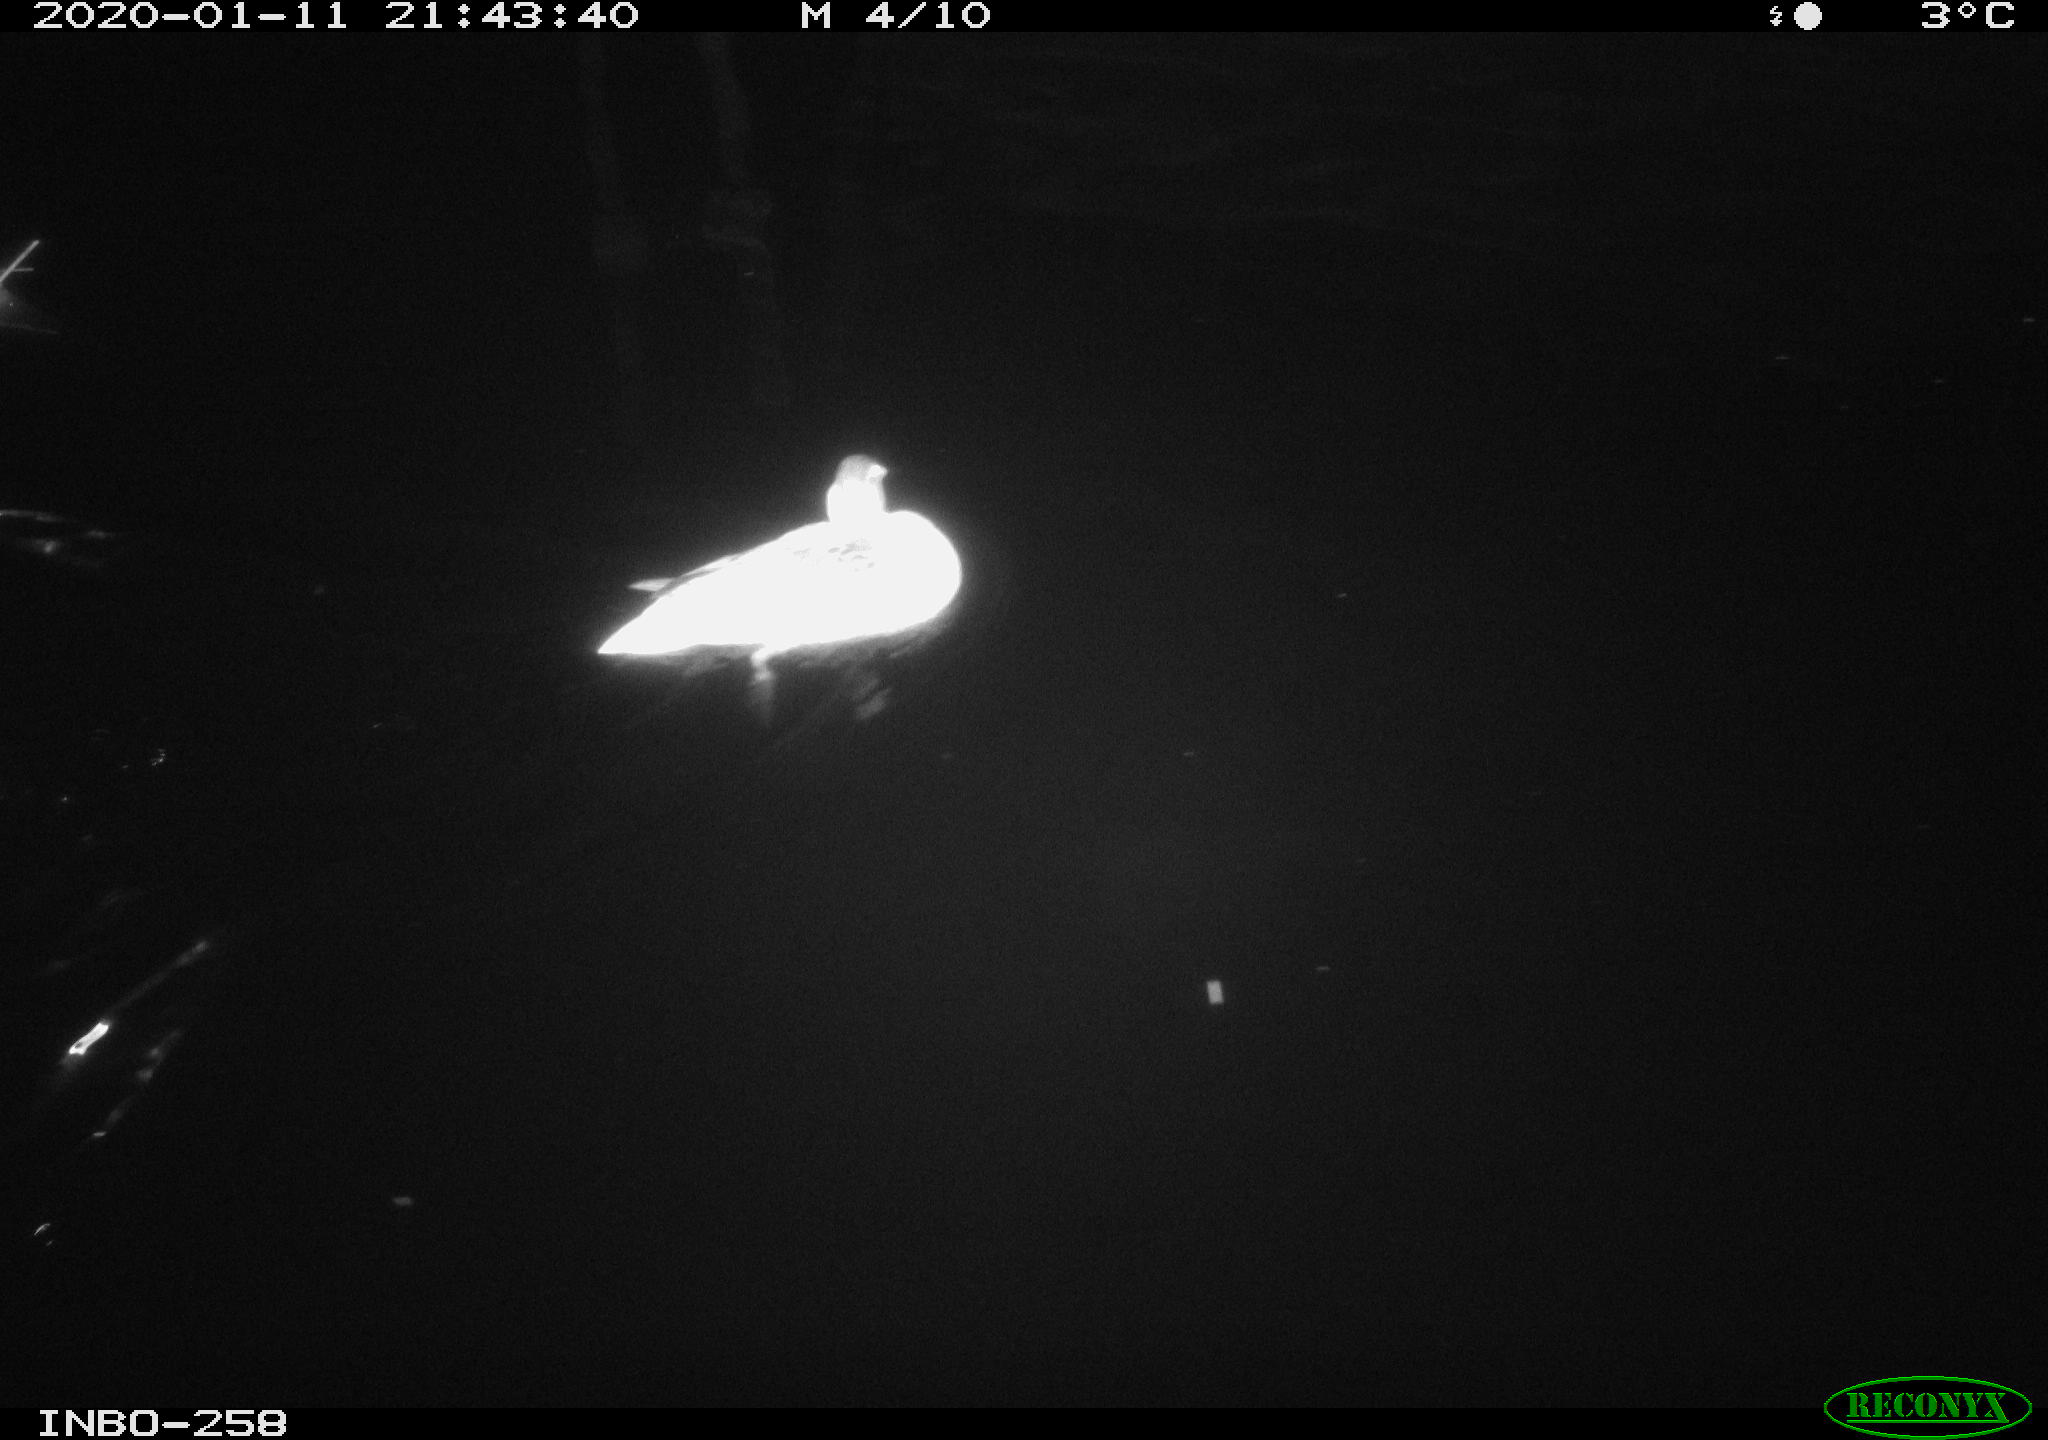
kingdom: Animalia
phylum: Chordata
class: Aves
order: Anseriformes
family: Anatidae
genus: Anas
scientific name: Anas platyrhynchos
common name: Mallard
